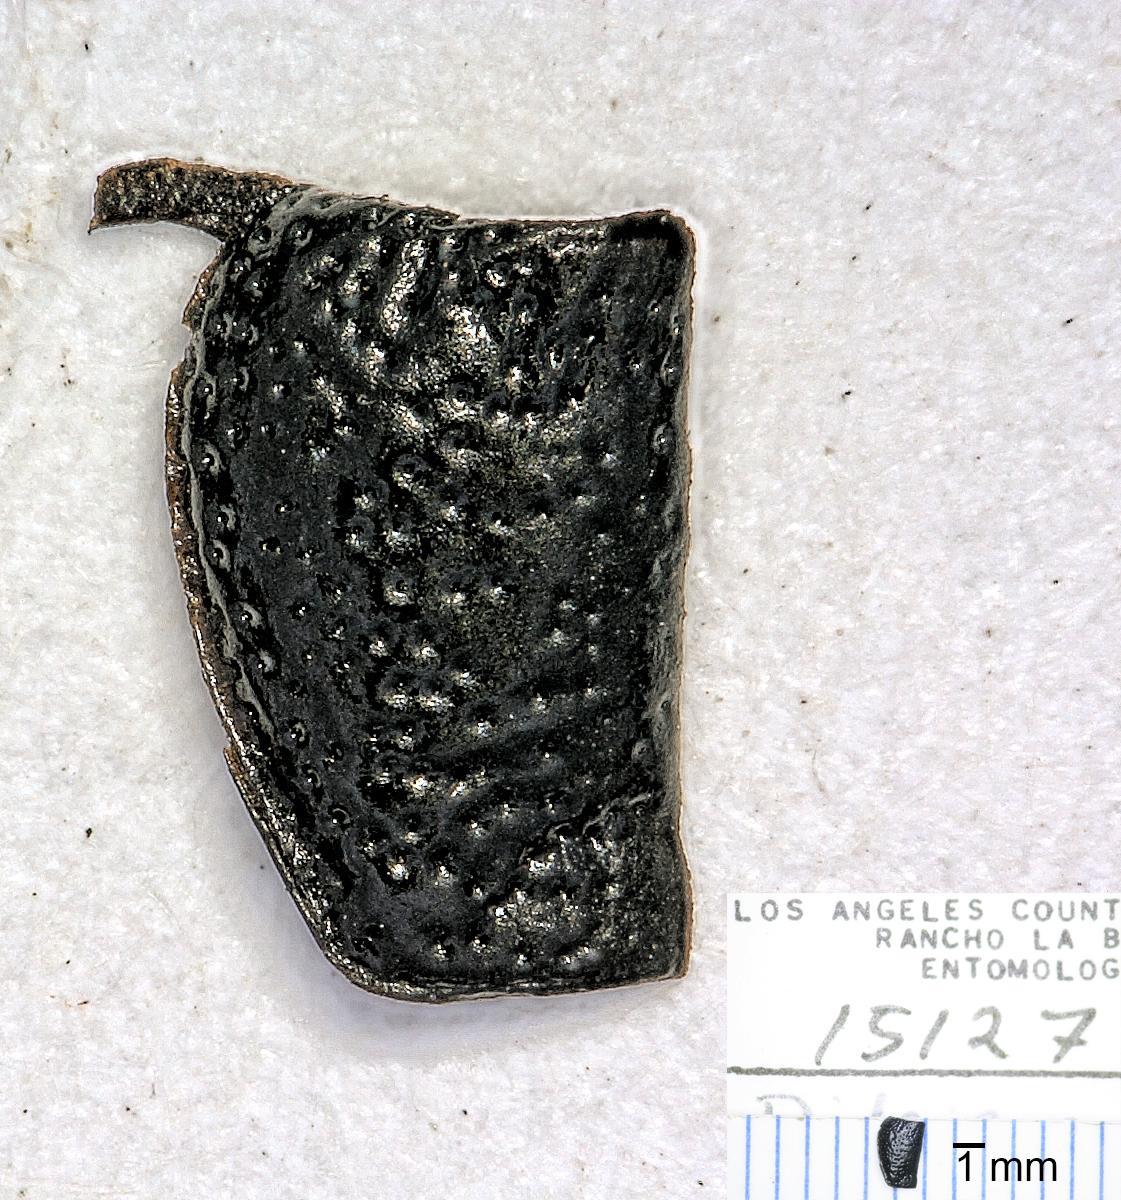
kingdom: Animalia
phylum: Arthropoda
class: Insecta
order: Coleoptera
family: Carabidae
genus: Dicheirus
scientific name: Dicheirus
